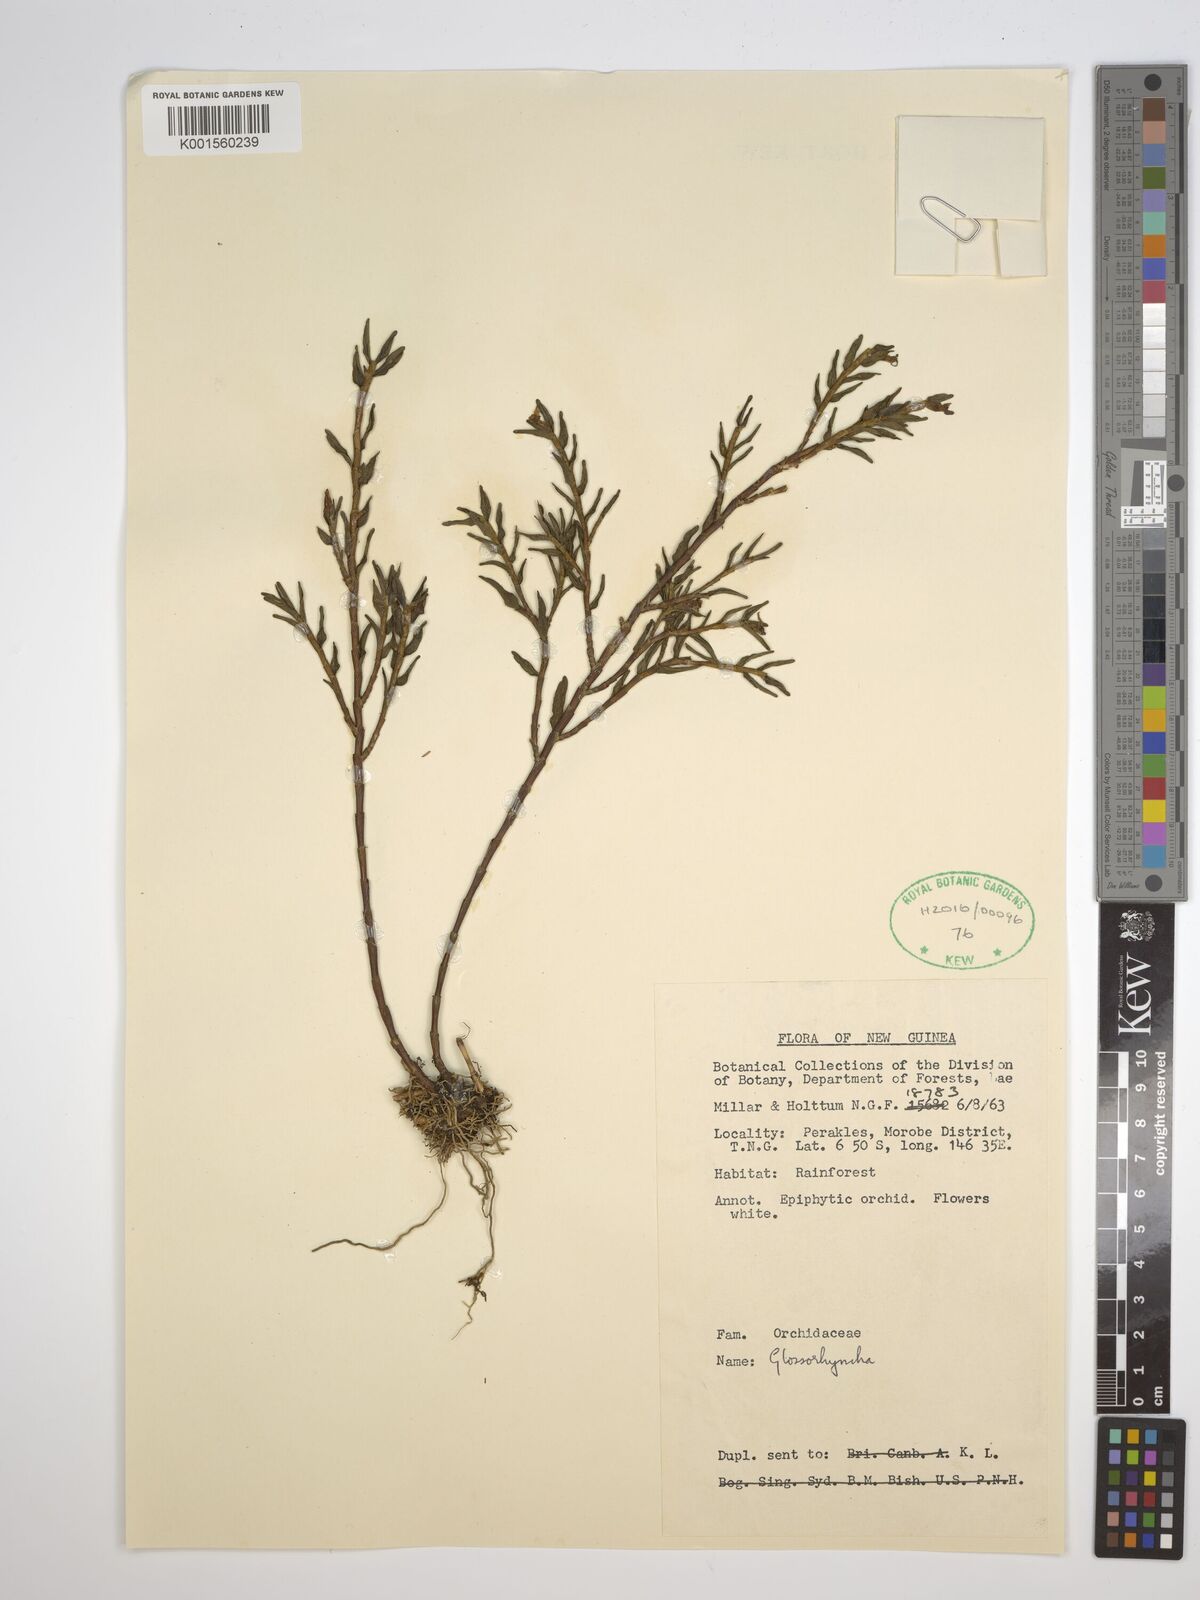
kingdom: Plantae
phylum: Tracheophyta
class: Liliopsida
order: Asparagales
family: Orchidaceae
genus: Glomera
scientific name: Glomera
